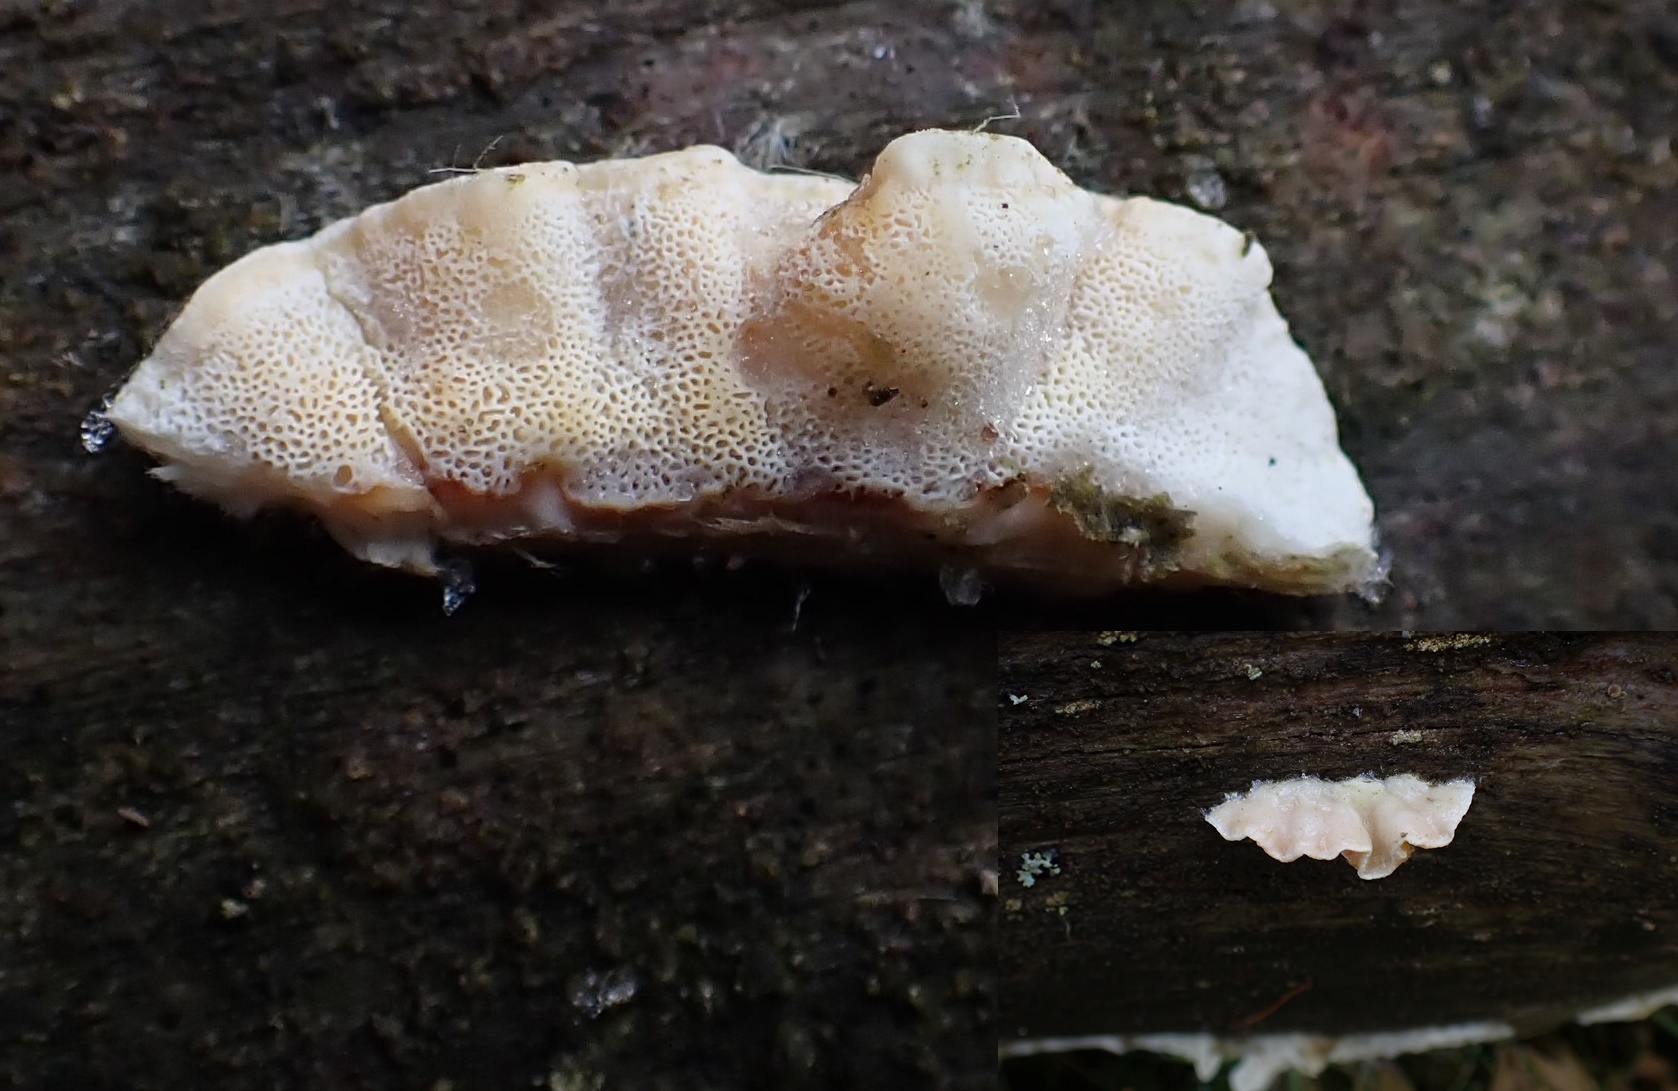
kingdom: Fungi
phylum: Basidiomycota
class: Agaricomycetes
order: Polyporales
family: Incrustoporiaceae
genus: Skeletocutis
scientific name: Skeletocutis amorpha
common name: orange krystalporesvamp
